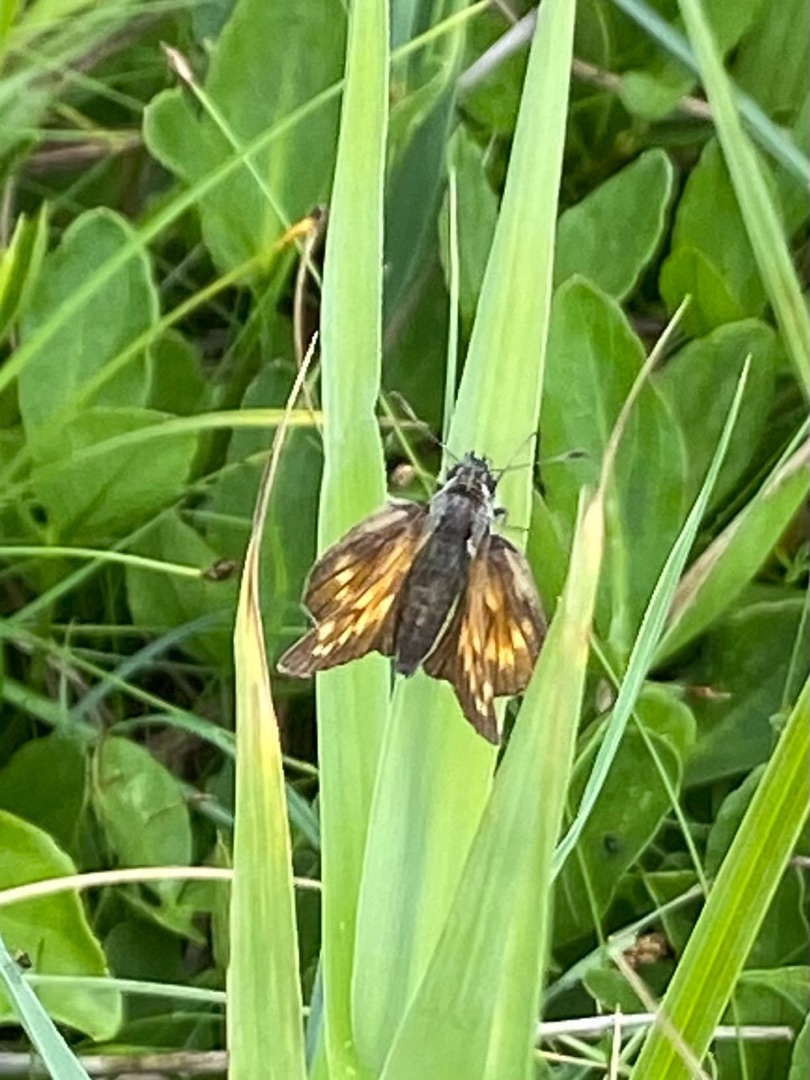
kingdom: Animalia
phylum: Arthropoda
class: Insecta
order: Lepidoptera
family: Hesperiidae
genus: Ochlodes
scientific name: Ochlodes venata
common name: Stor bredpande
